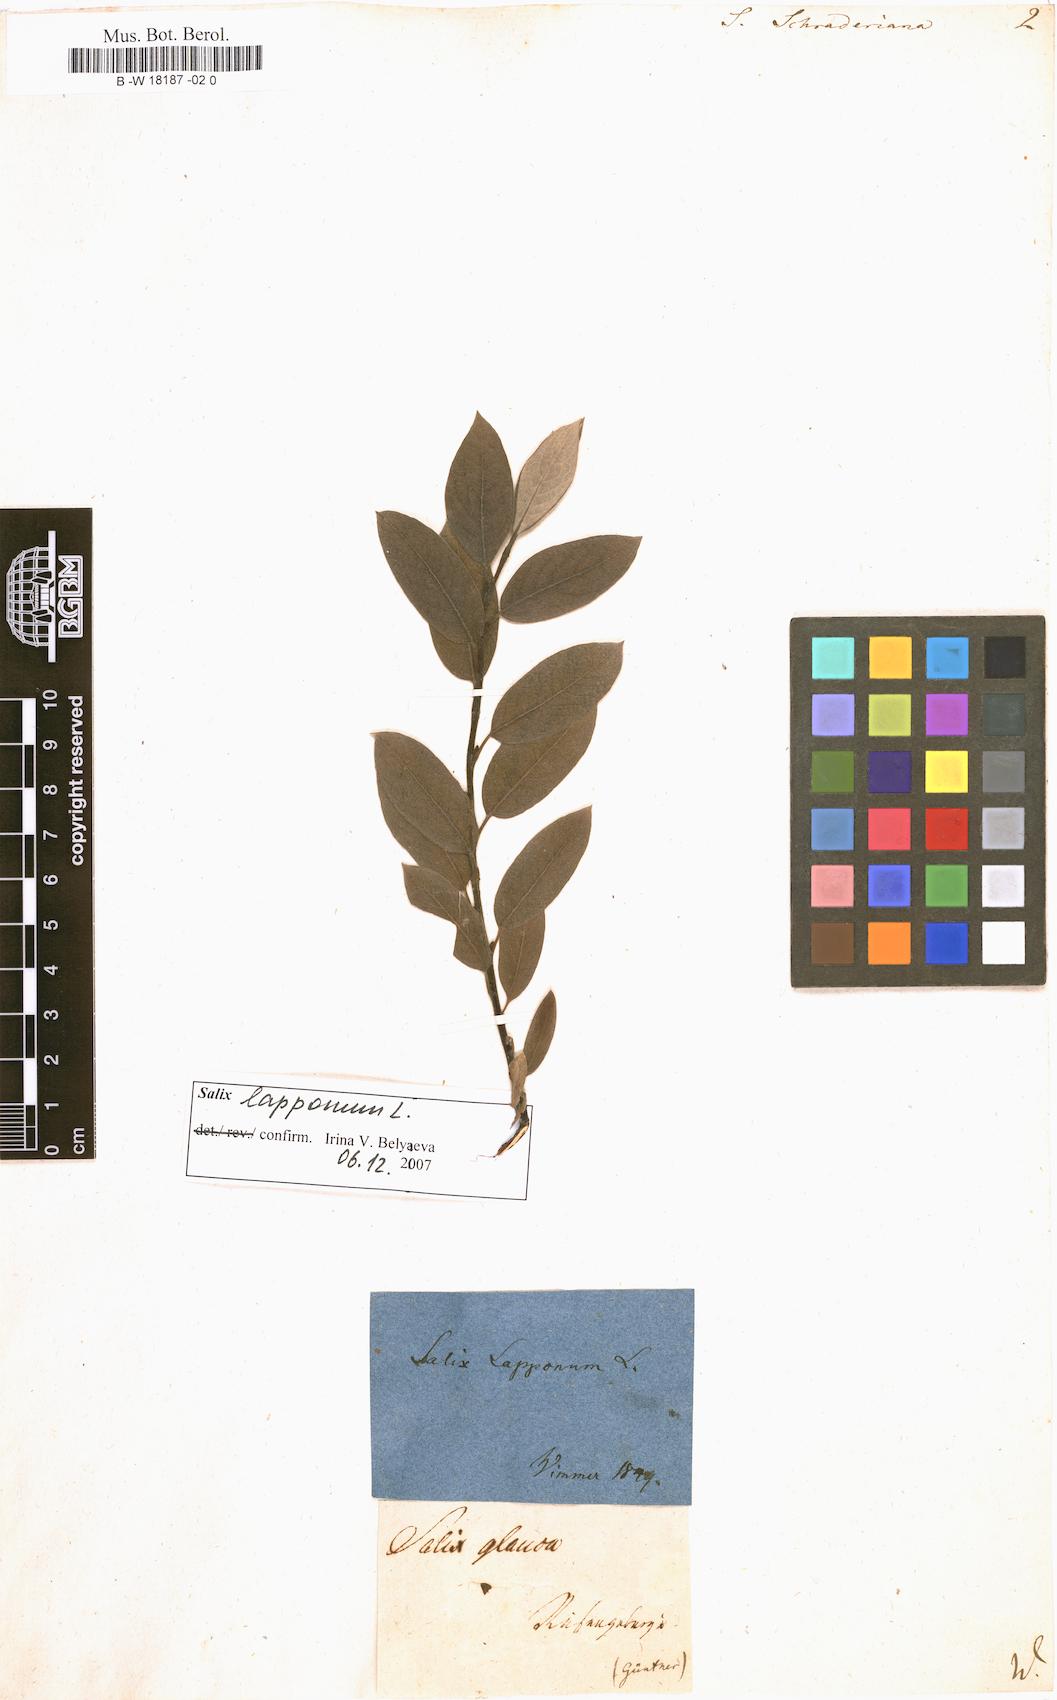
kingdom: Plantae
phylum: Tracheophyta
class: Magnoliopsida
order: Malpighiales
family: Salicaceae
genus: Salix
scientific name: Salix bicolor
